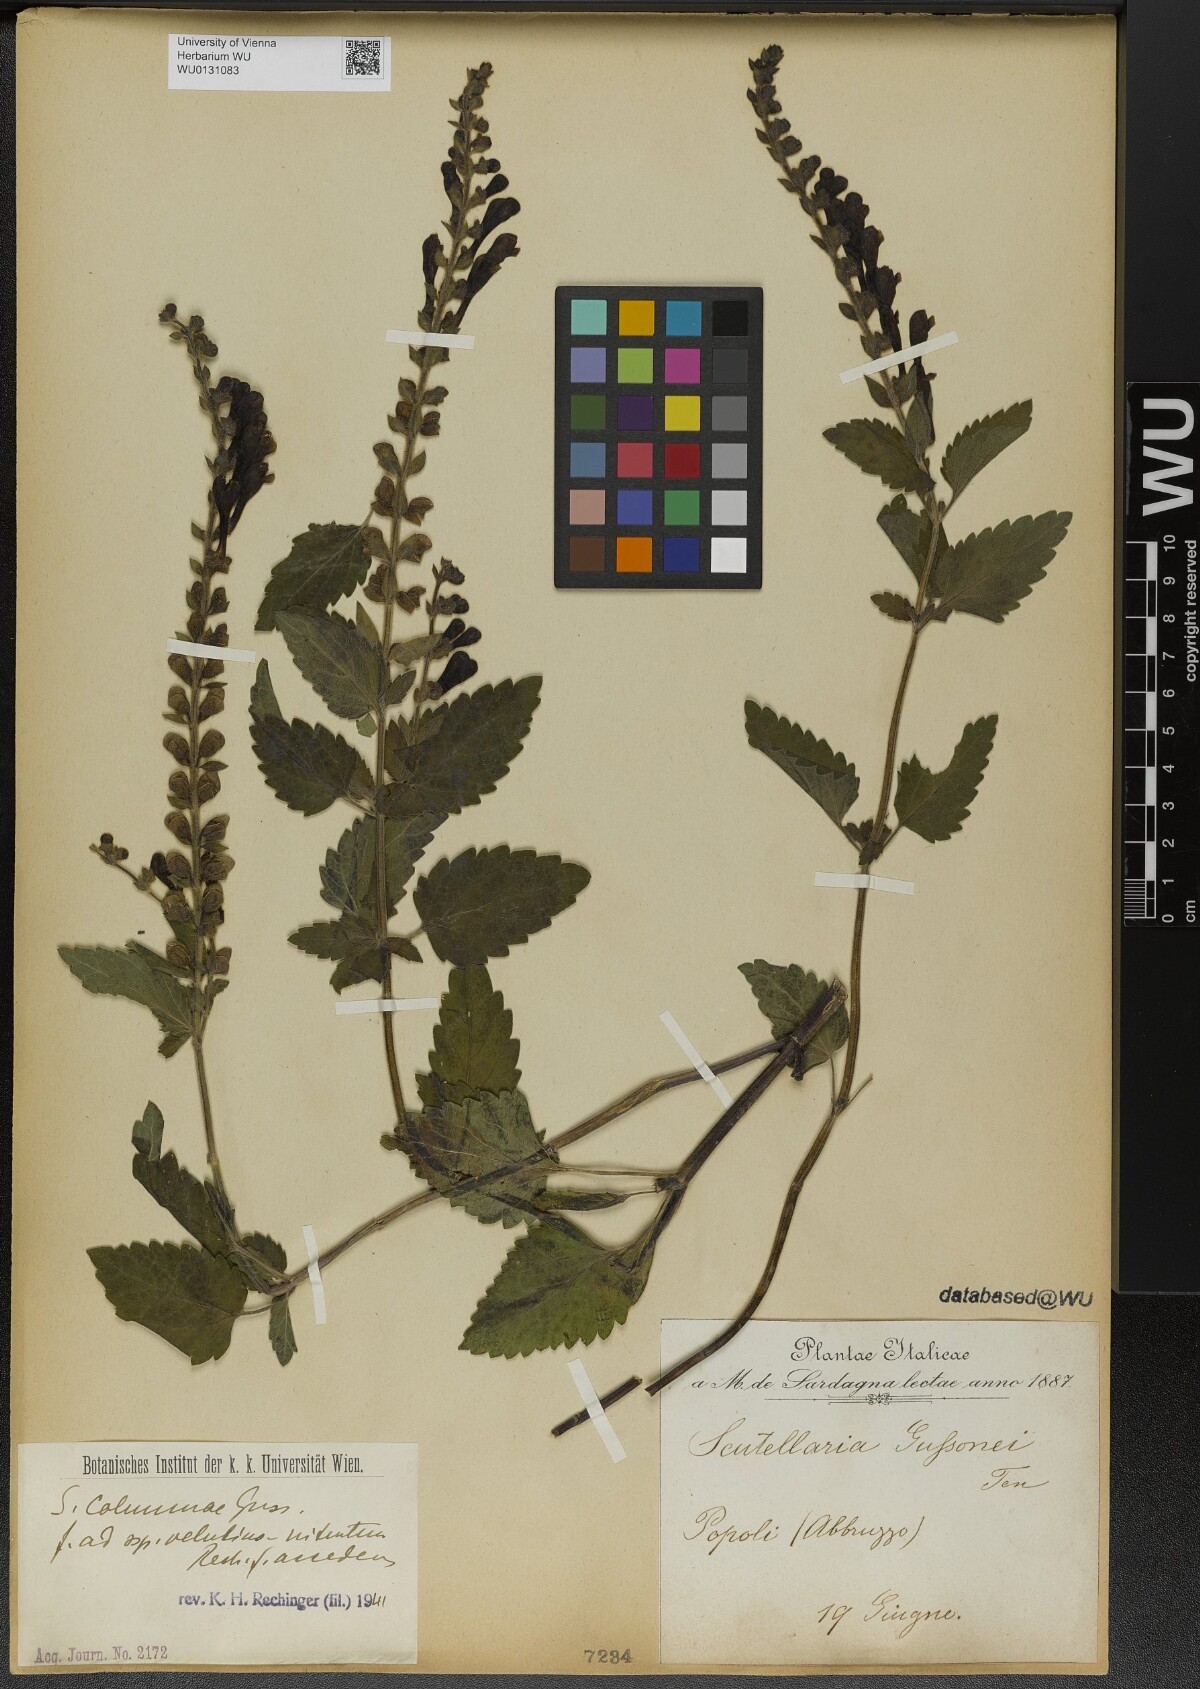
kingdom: Plantae
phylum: Tracheophyta
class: Magnoliopsida
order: Lamiales
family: Lamiaceae
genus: Scutellaria
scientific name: Scutellaria columnae
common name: Large skullcap
